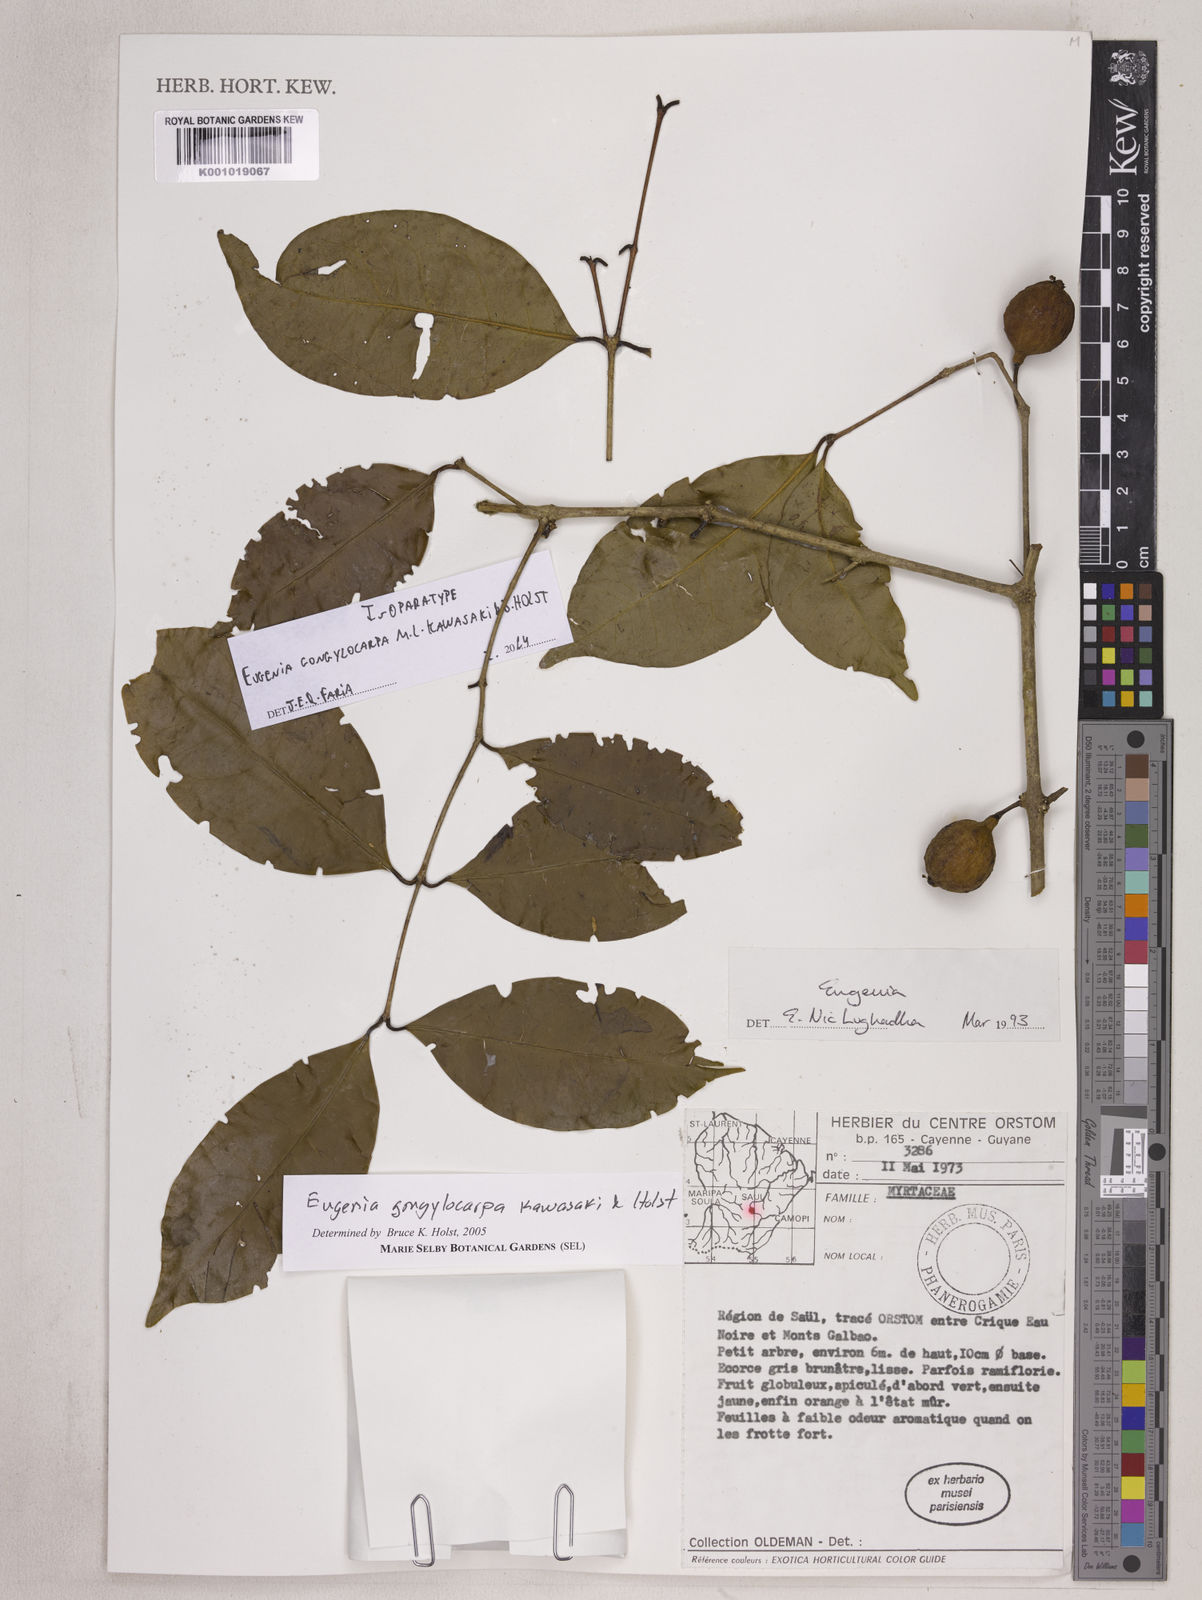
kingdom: Plantae
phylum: Tracheophyta
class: Magnoliopsida
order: Myrtales
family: Myrtaceae
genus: Eugenia
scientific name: Eugenia gongylocarpa
